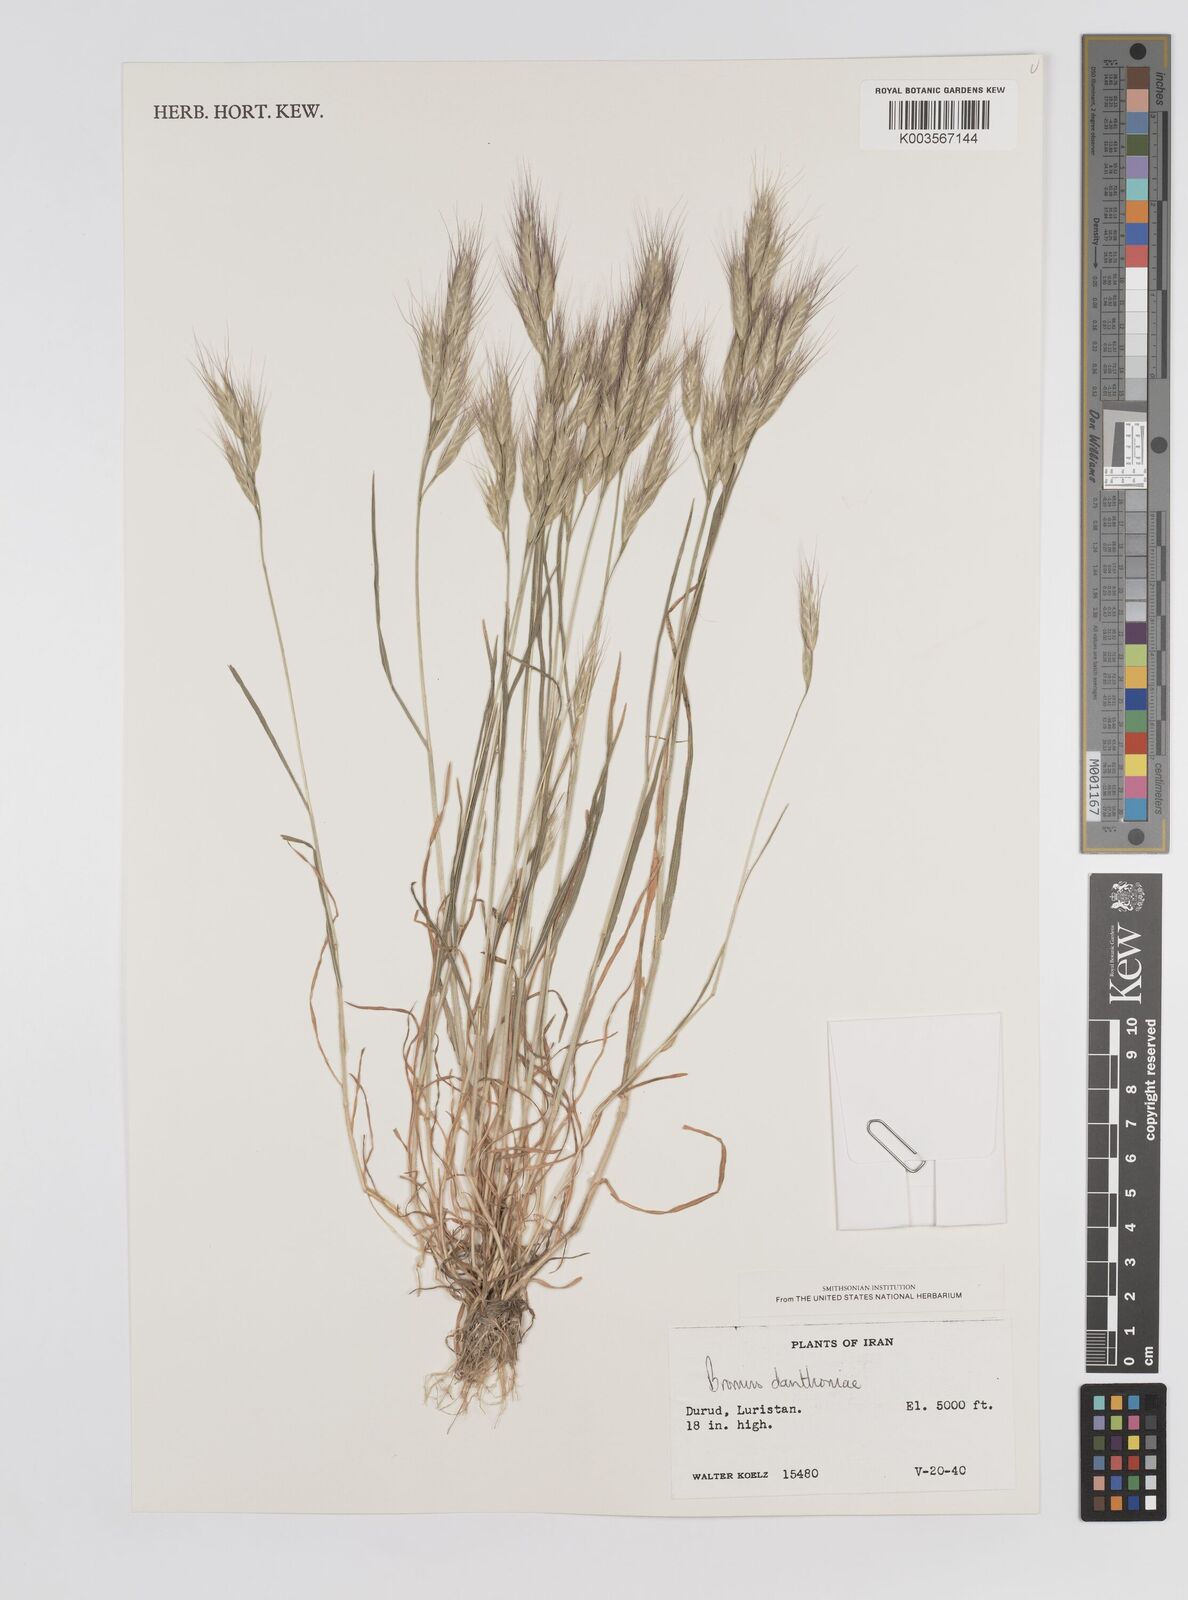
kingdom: Plantae
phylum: Tracheophyta
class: Liliopsida
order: Poales
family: Poaceae
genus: Bromus
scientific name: Bromus danthoniae
